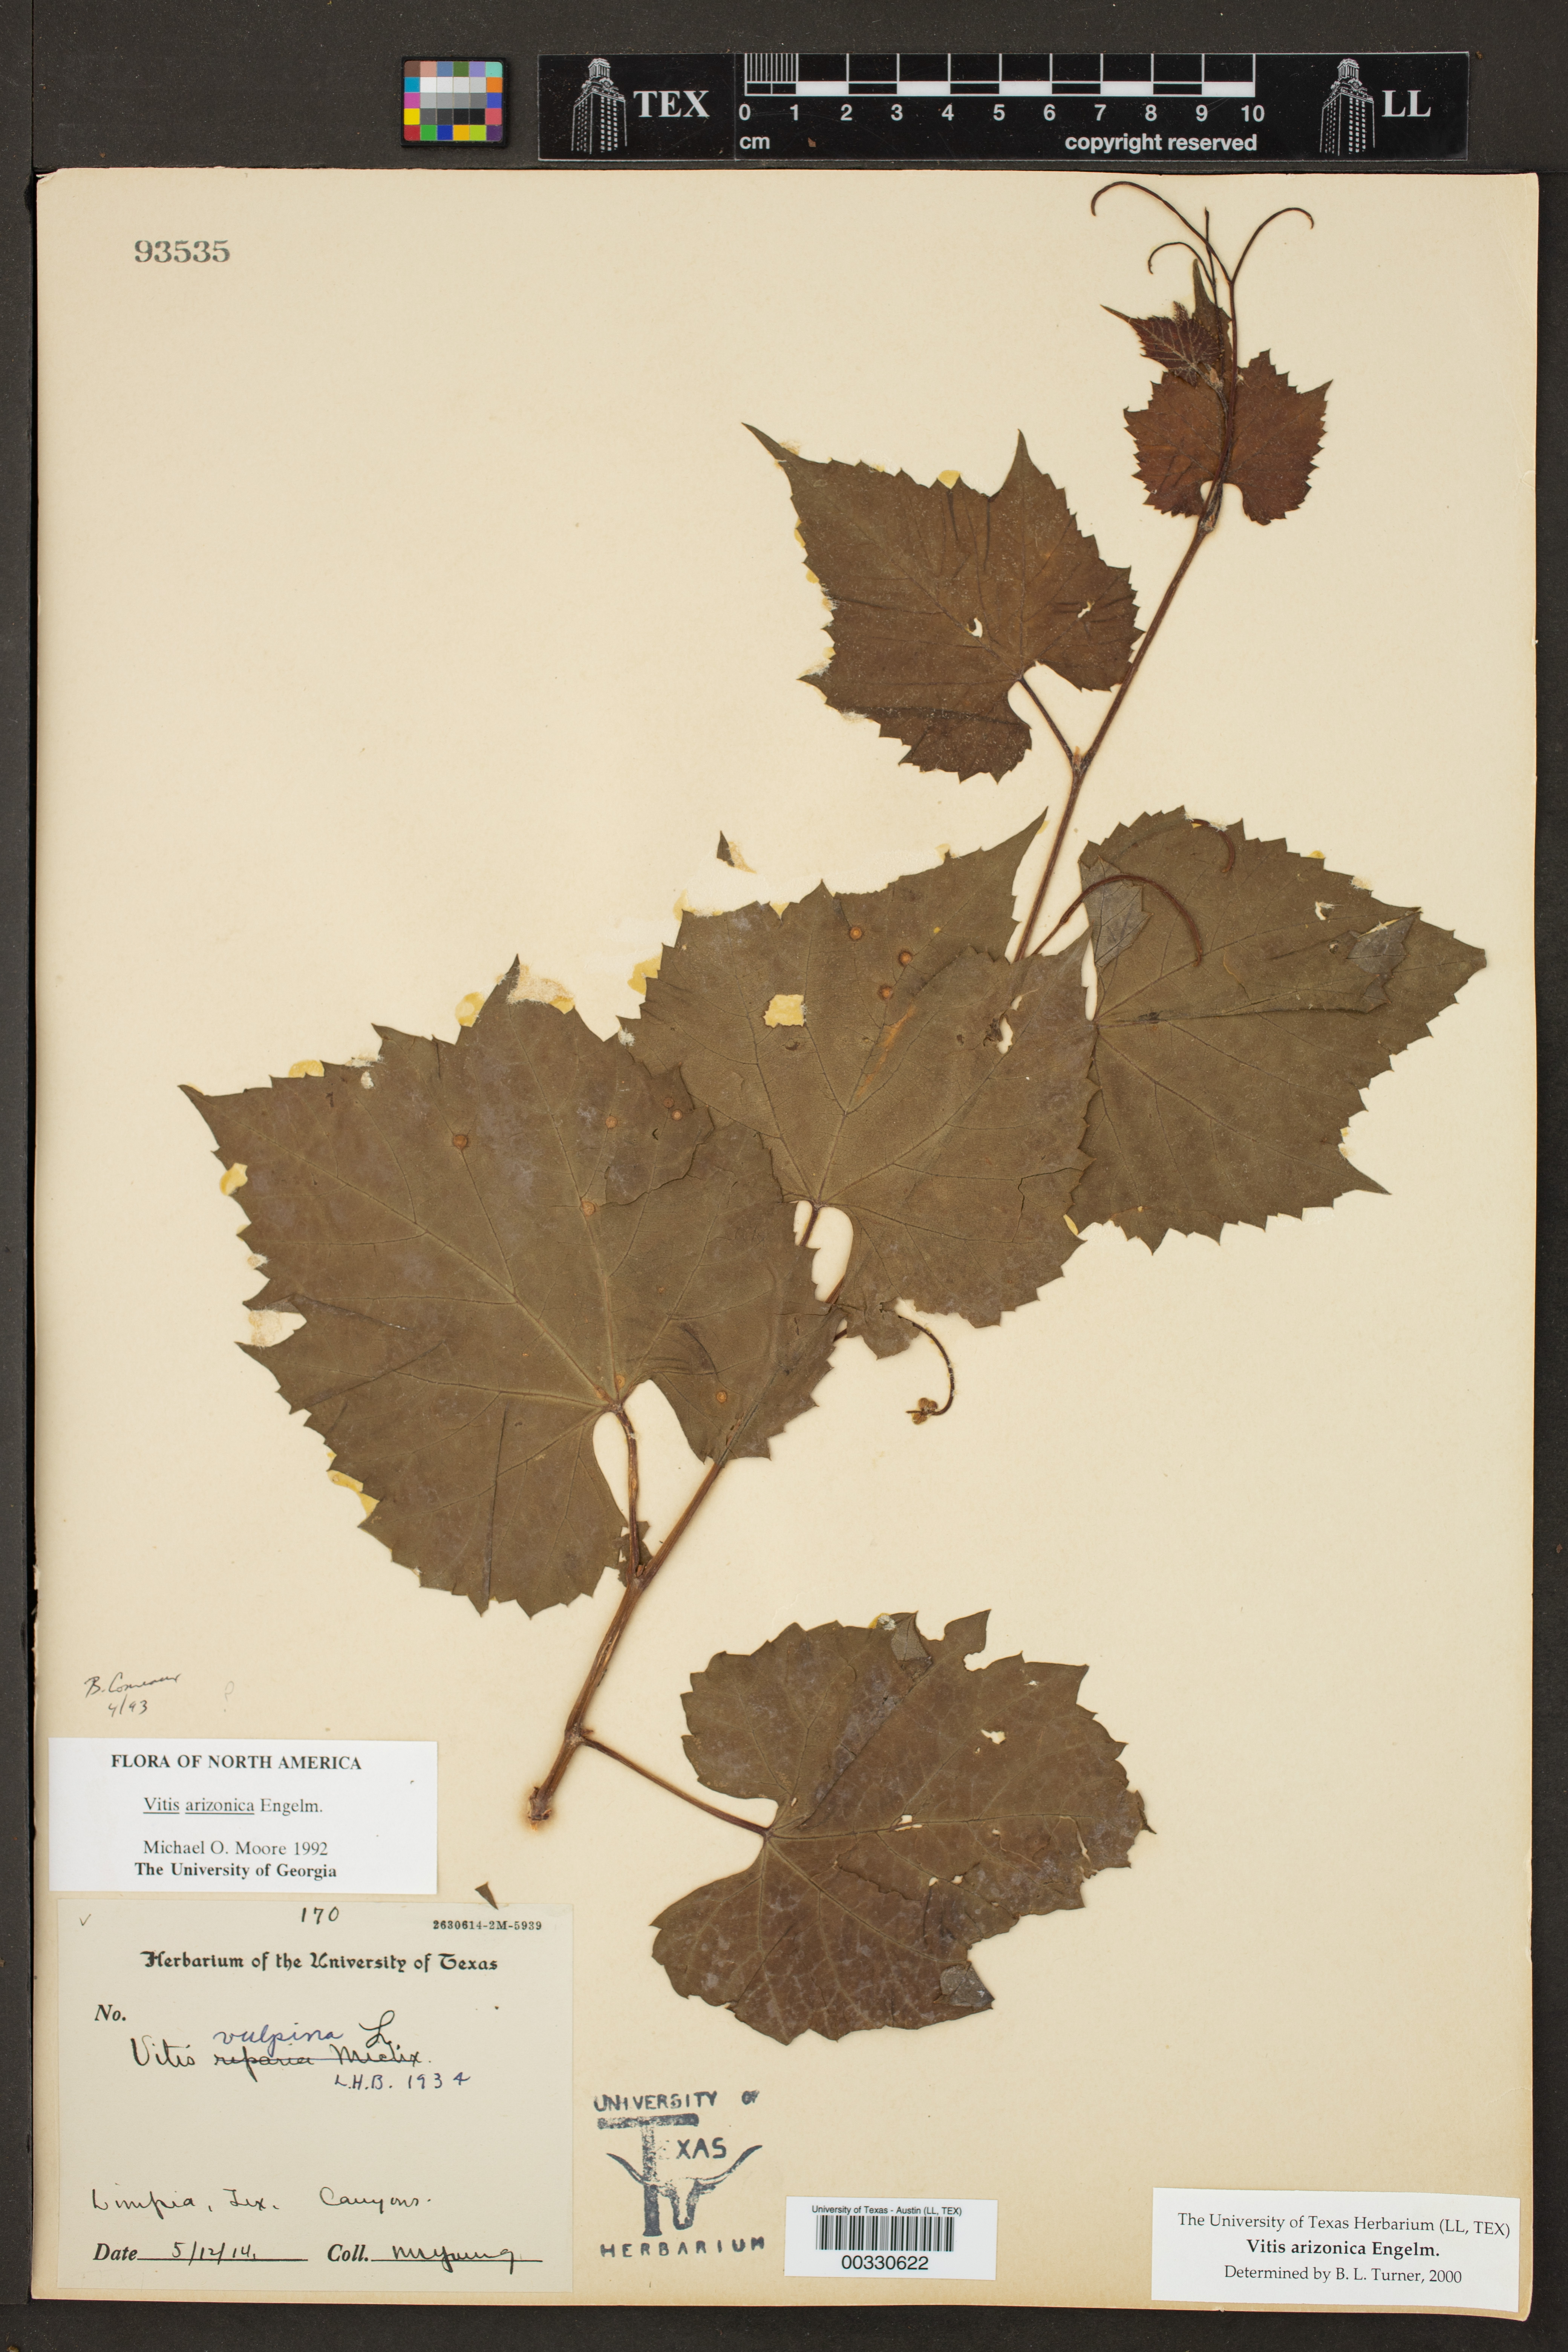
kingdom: Plantae
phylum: Tracheophyta
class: Magnoliopsida
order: Vitales
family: Vitaceae
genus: Vitis
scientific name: Vitis arizonica
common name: Canyon grape
